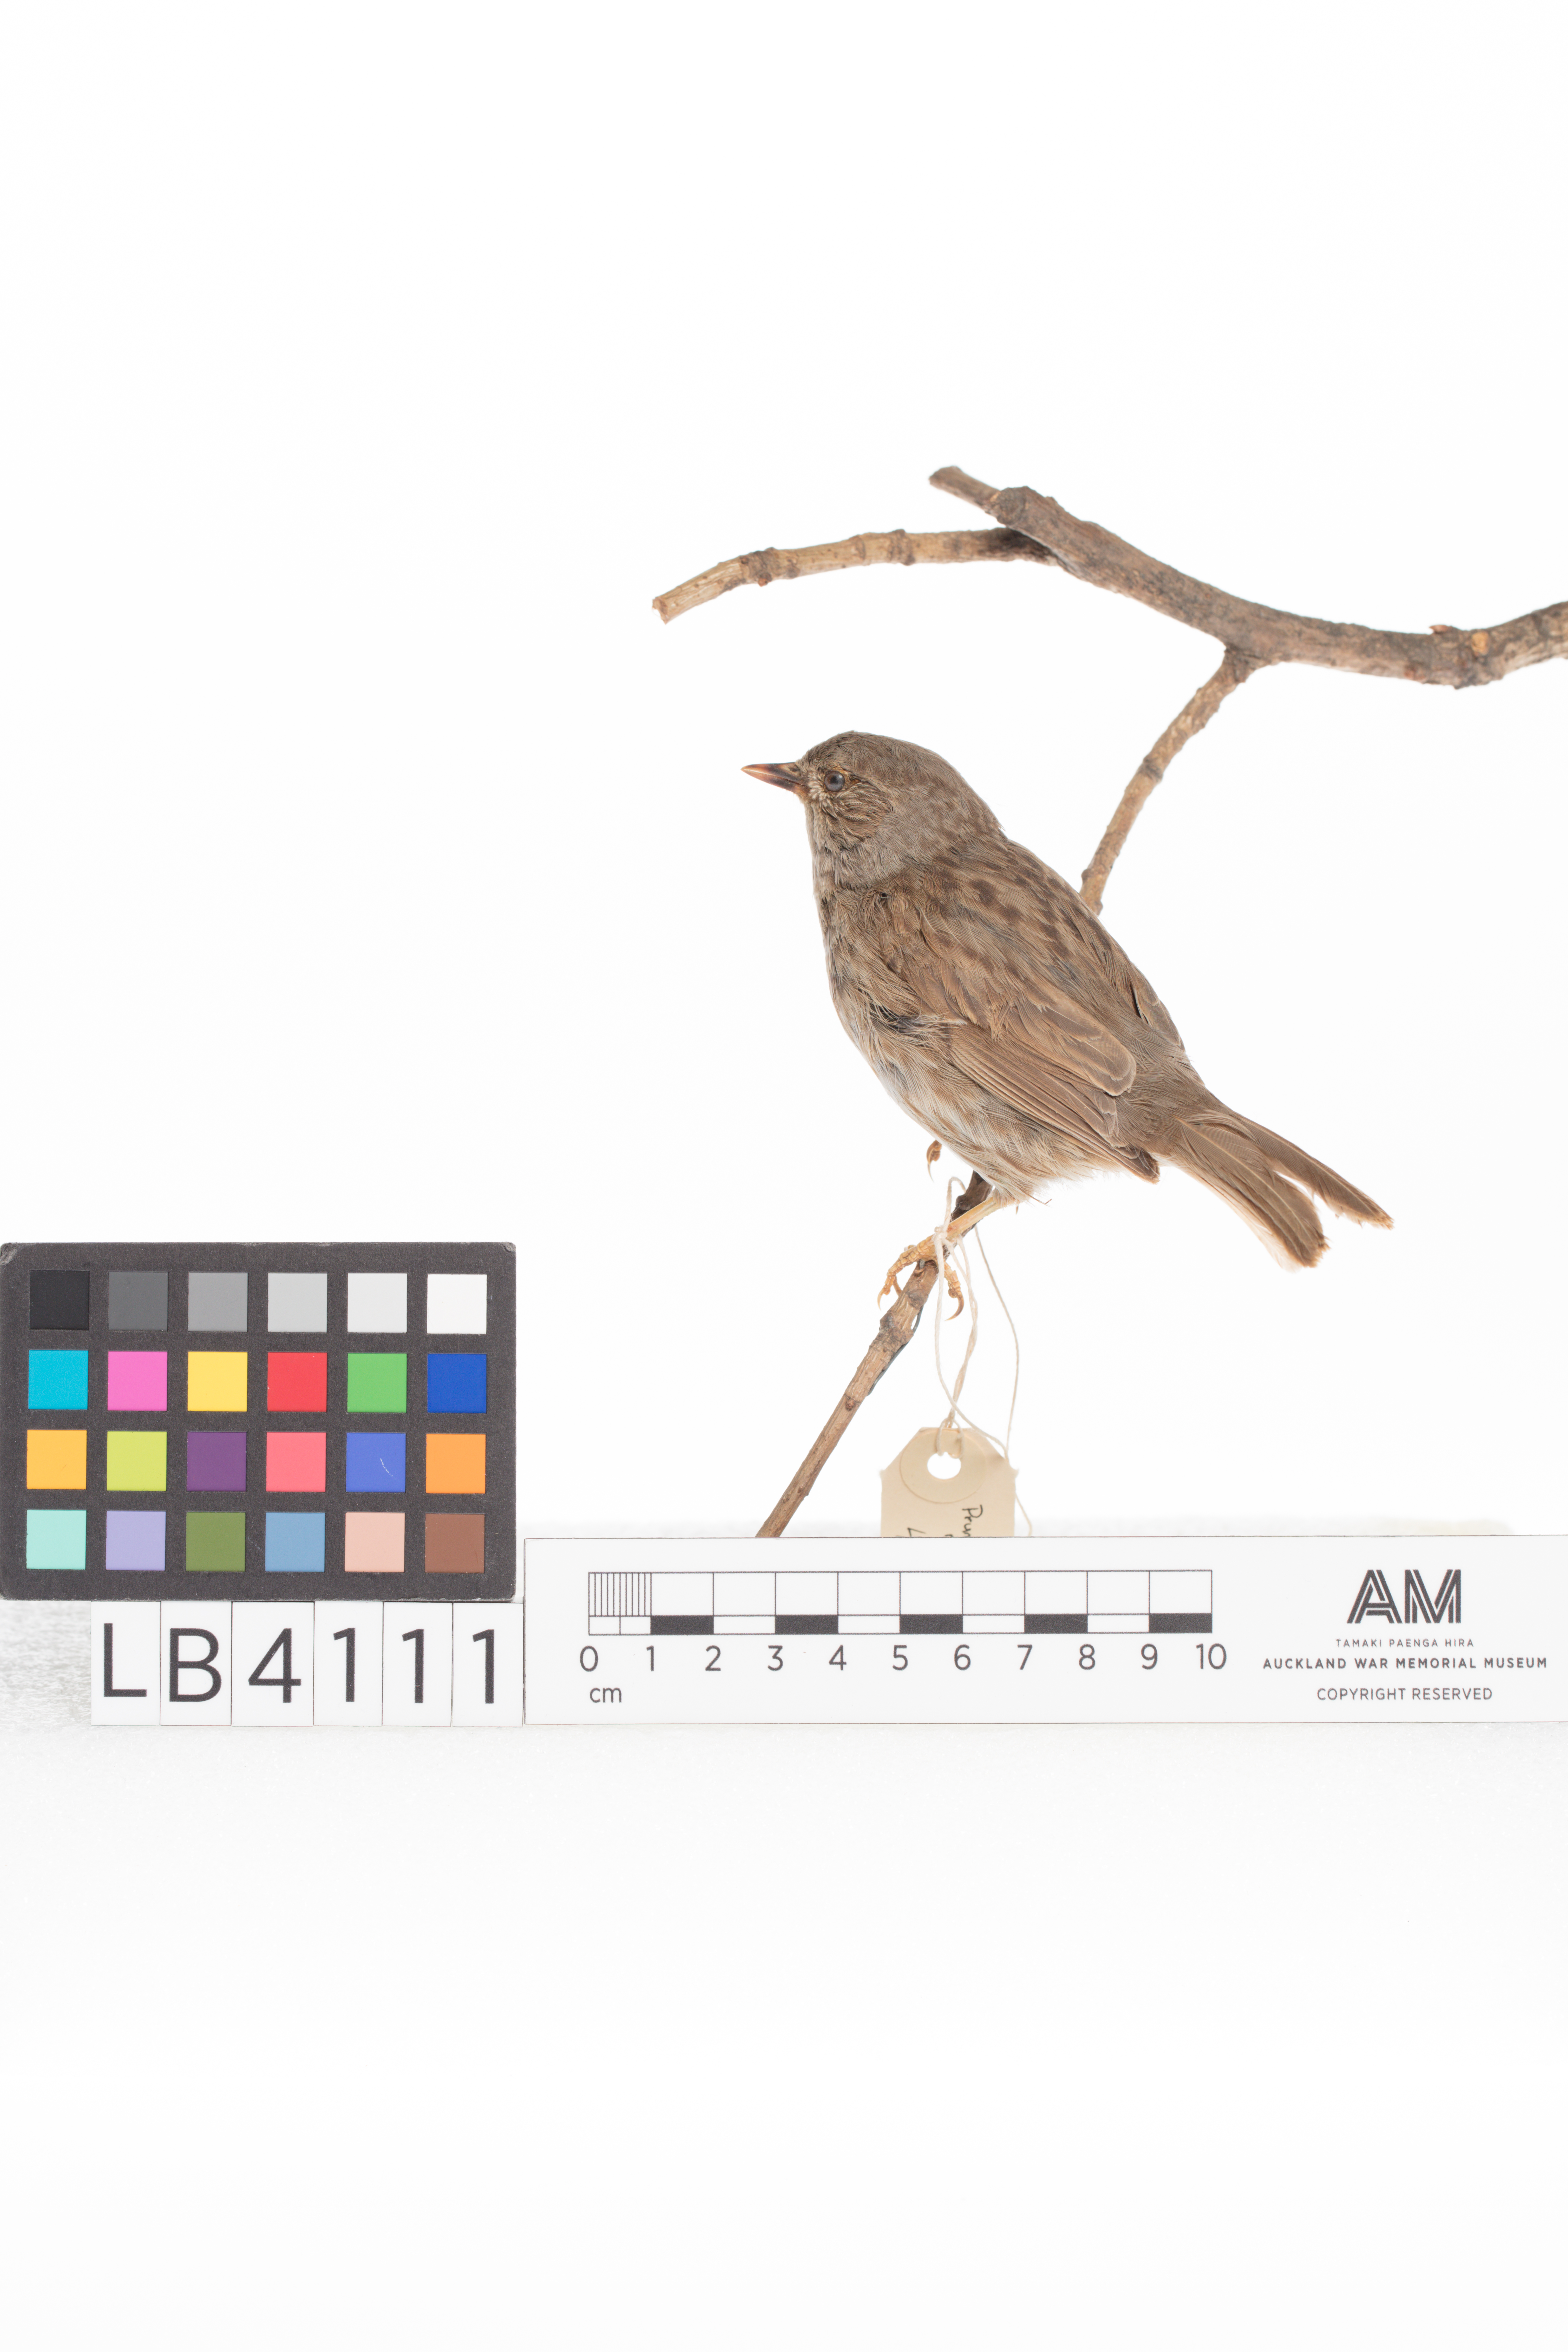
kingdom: Animalia
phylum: Chordata
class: Aves
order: Passeriformes
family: Prunellidae
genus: Prunella
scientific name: Prunella modularis
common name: Dunnock
